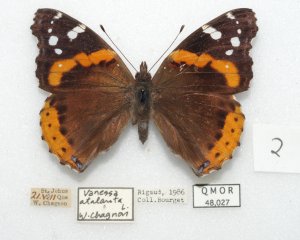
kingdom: Animalia
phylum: Arthropoda
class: Insecta
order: Lepidoptera
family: Nymphalidae
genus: Vanessa
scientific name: Vanessa atalanta
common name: Red Admiral
